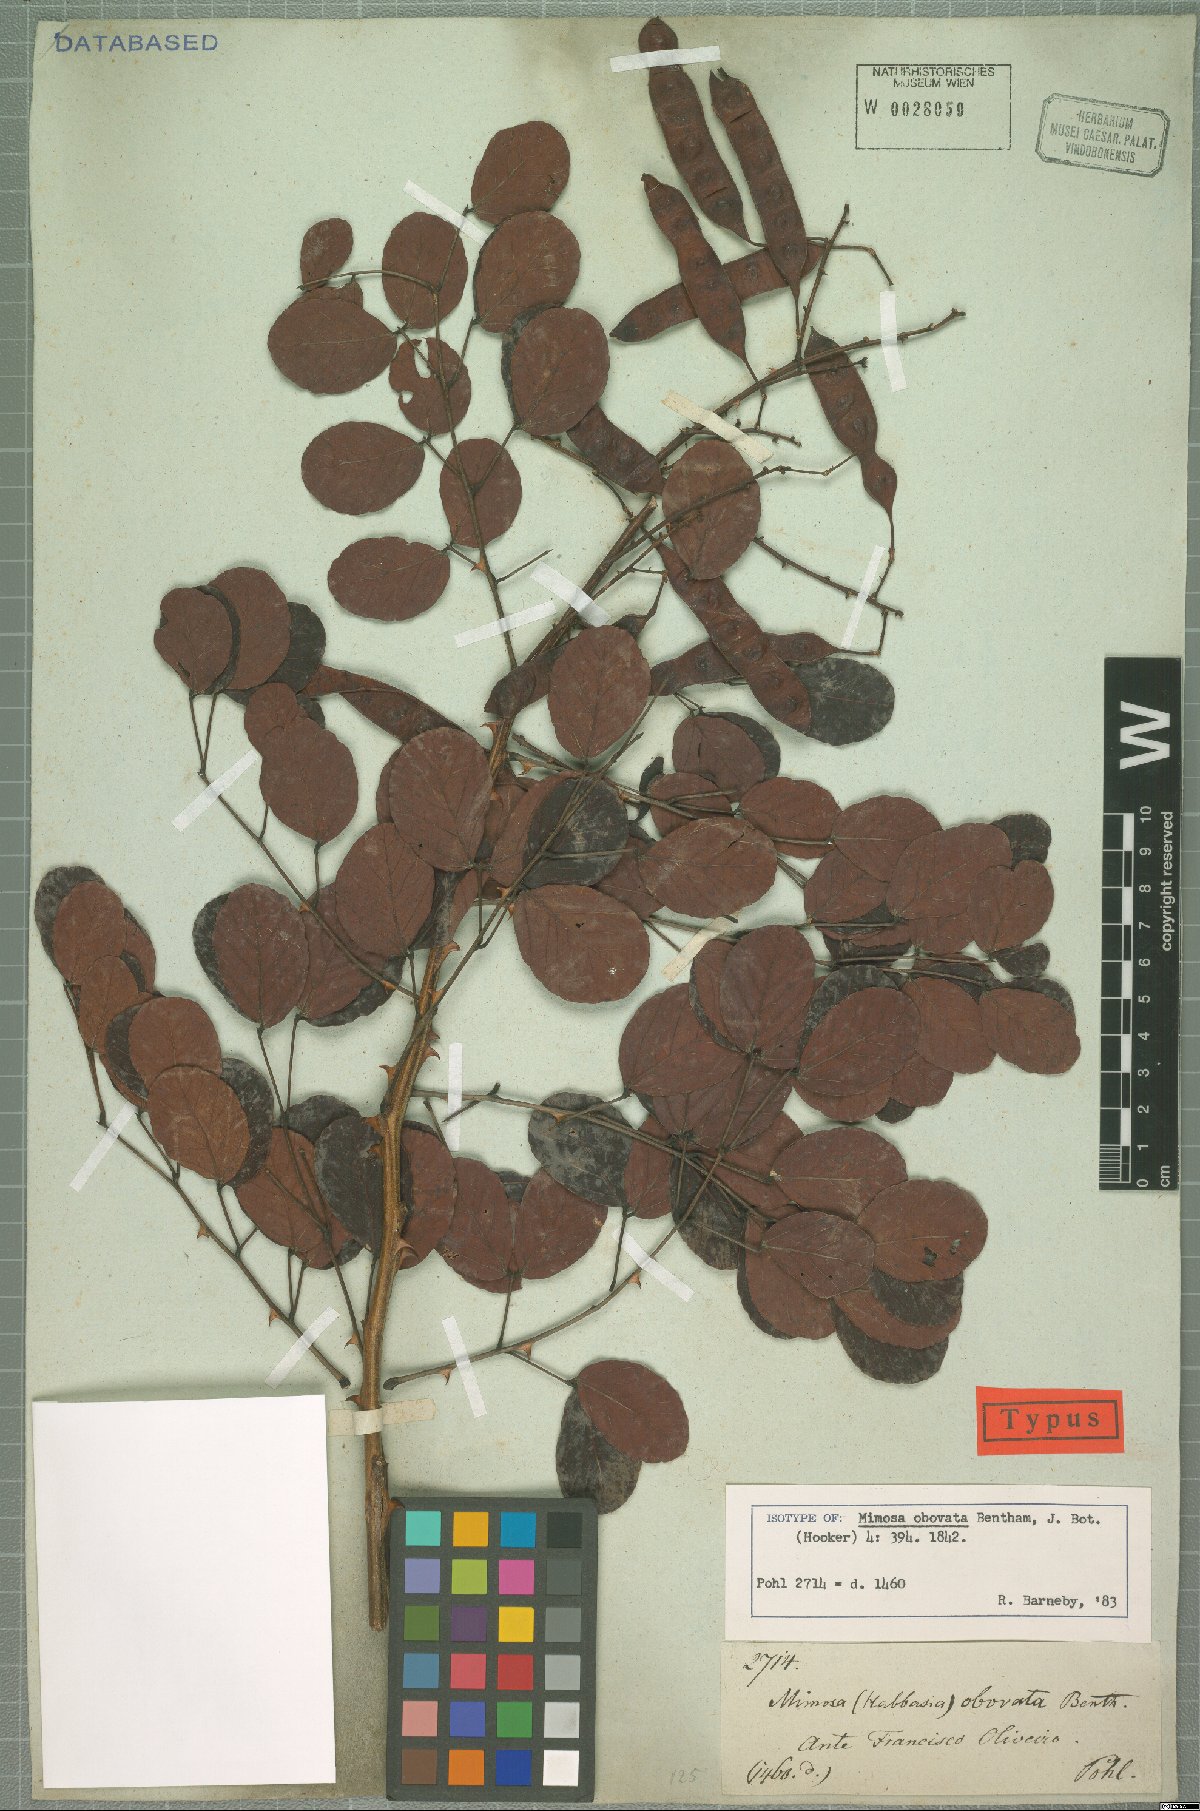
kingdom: Plantae
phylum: Tracheophyta
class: Magnoliopsida
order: Fabales
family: Fabaceae
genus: Mimosa
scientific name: Mimosa laticifera
